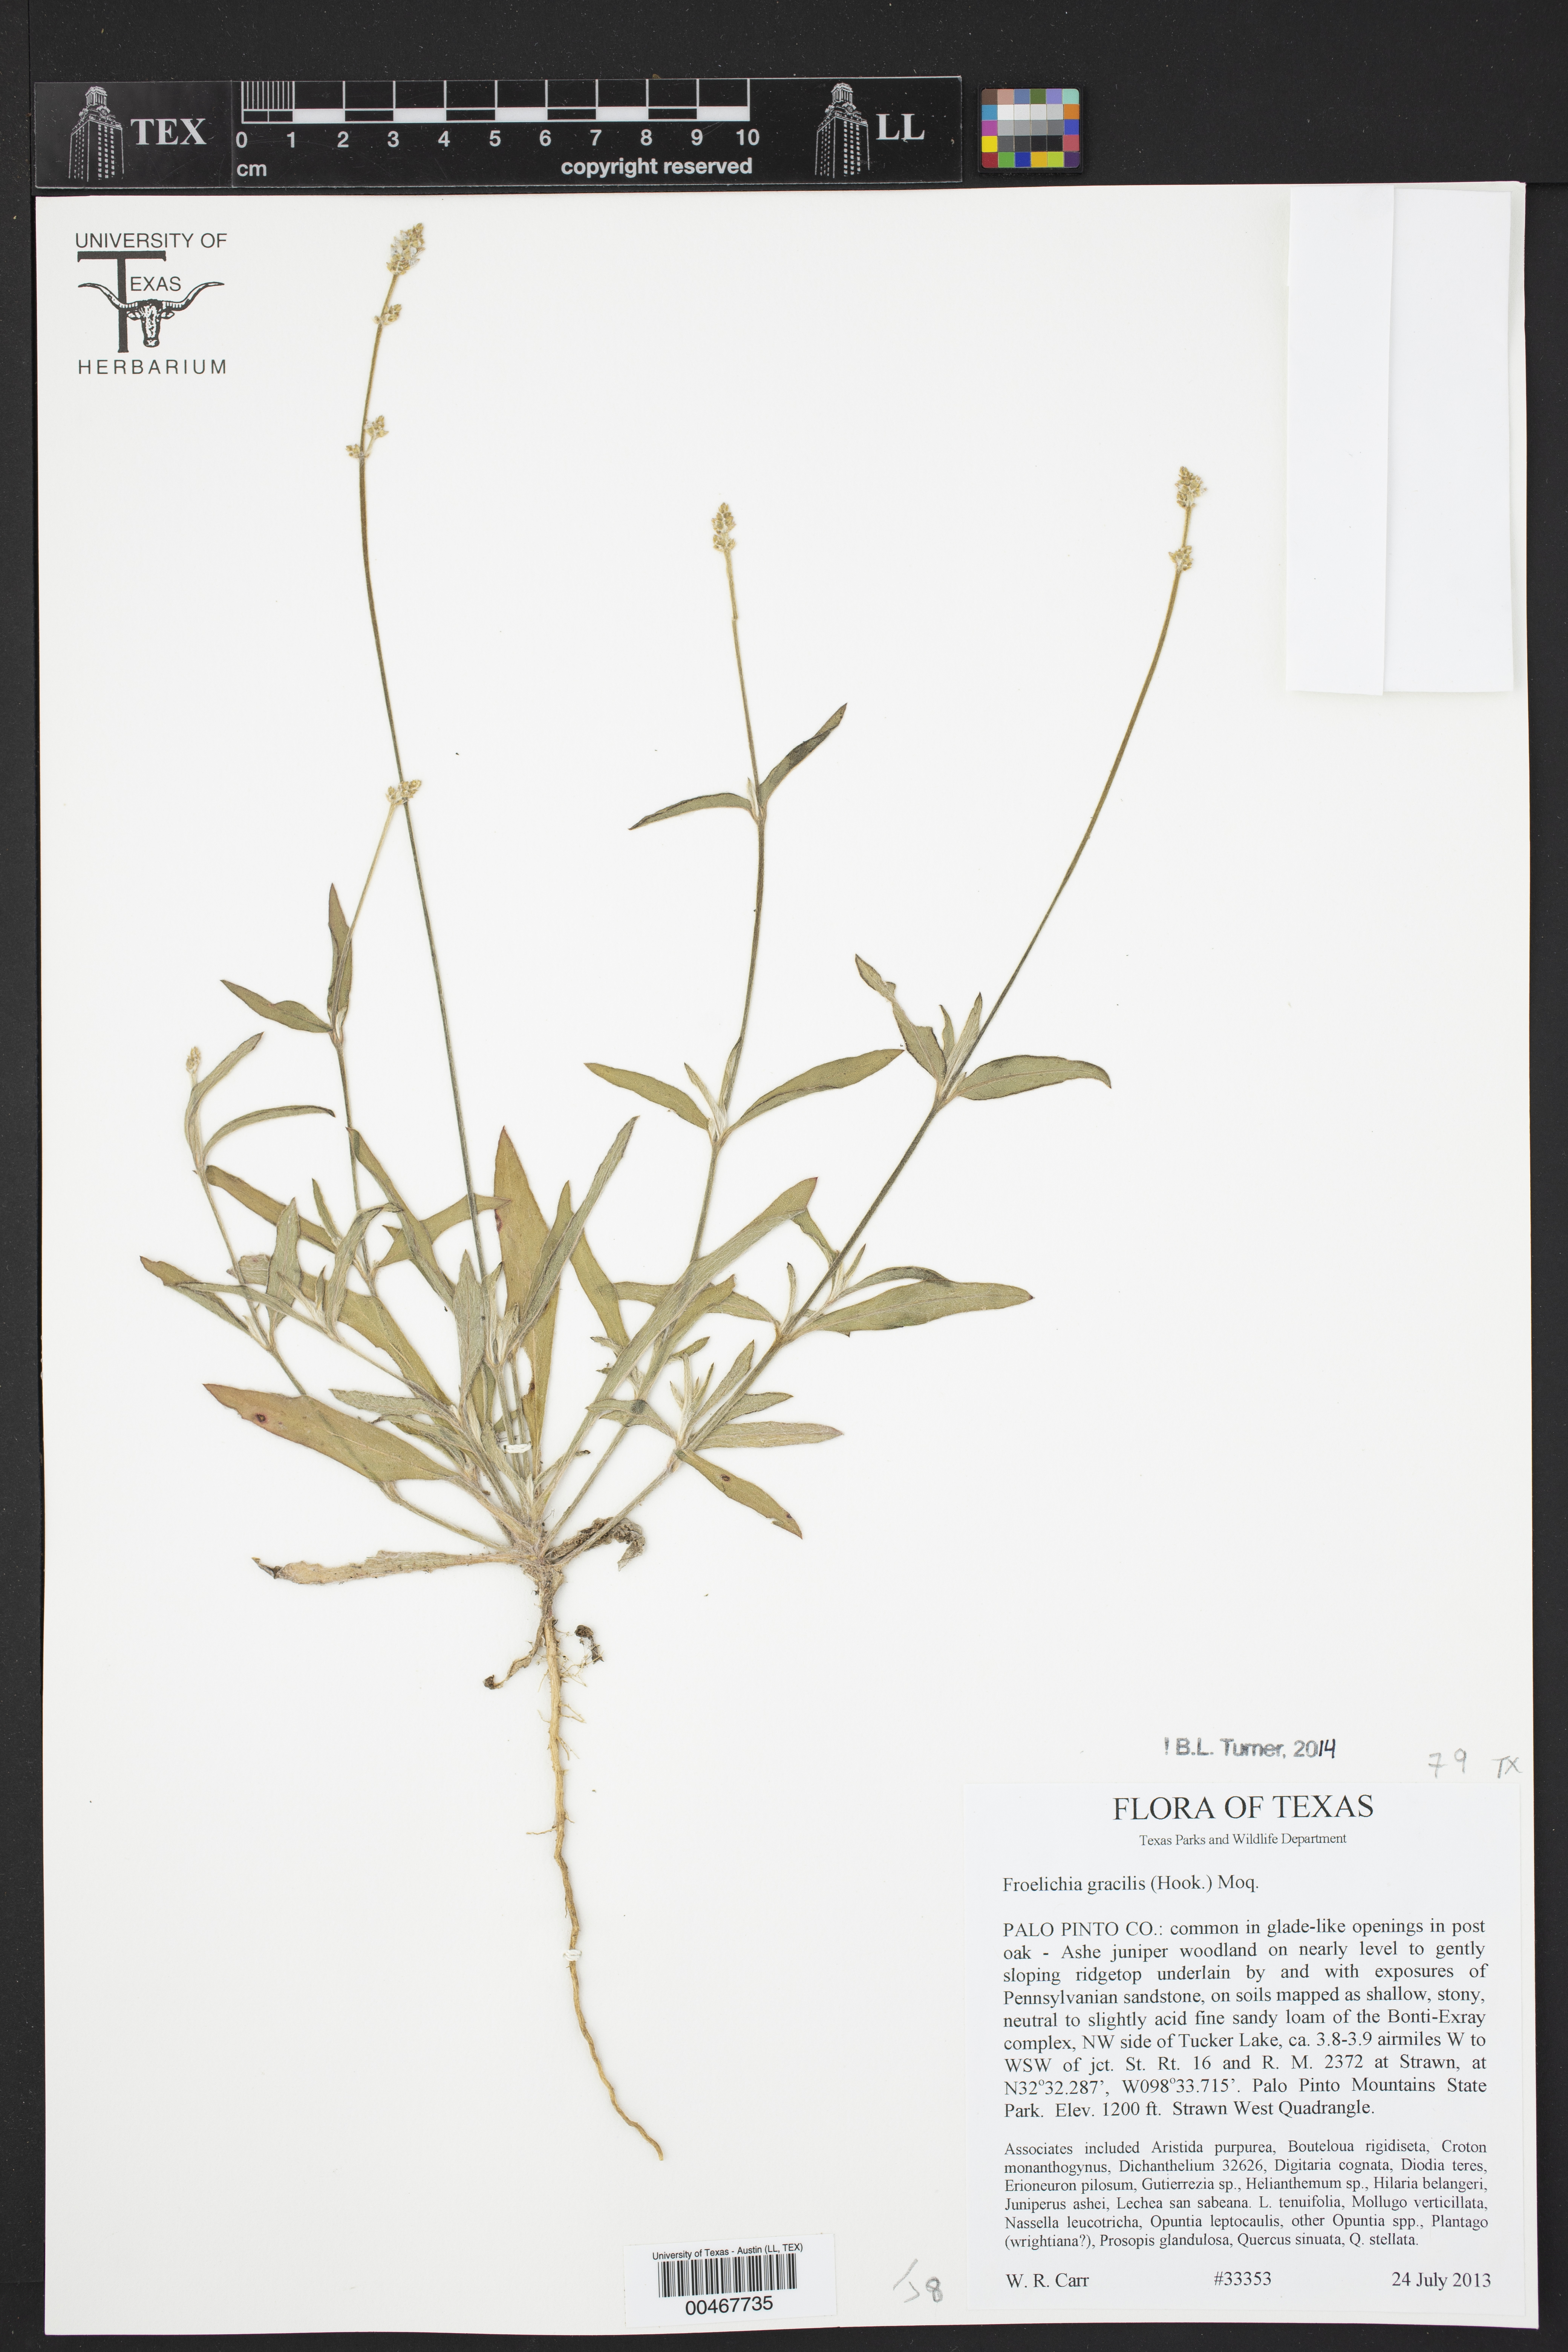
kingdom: Plantae
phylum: Tracheophyta
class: Magnoliopsida
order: Caryophyllales
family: Amaranthaceae
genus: Froelichia
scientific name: Froelichia gracilis
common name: Slender cottonweed
